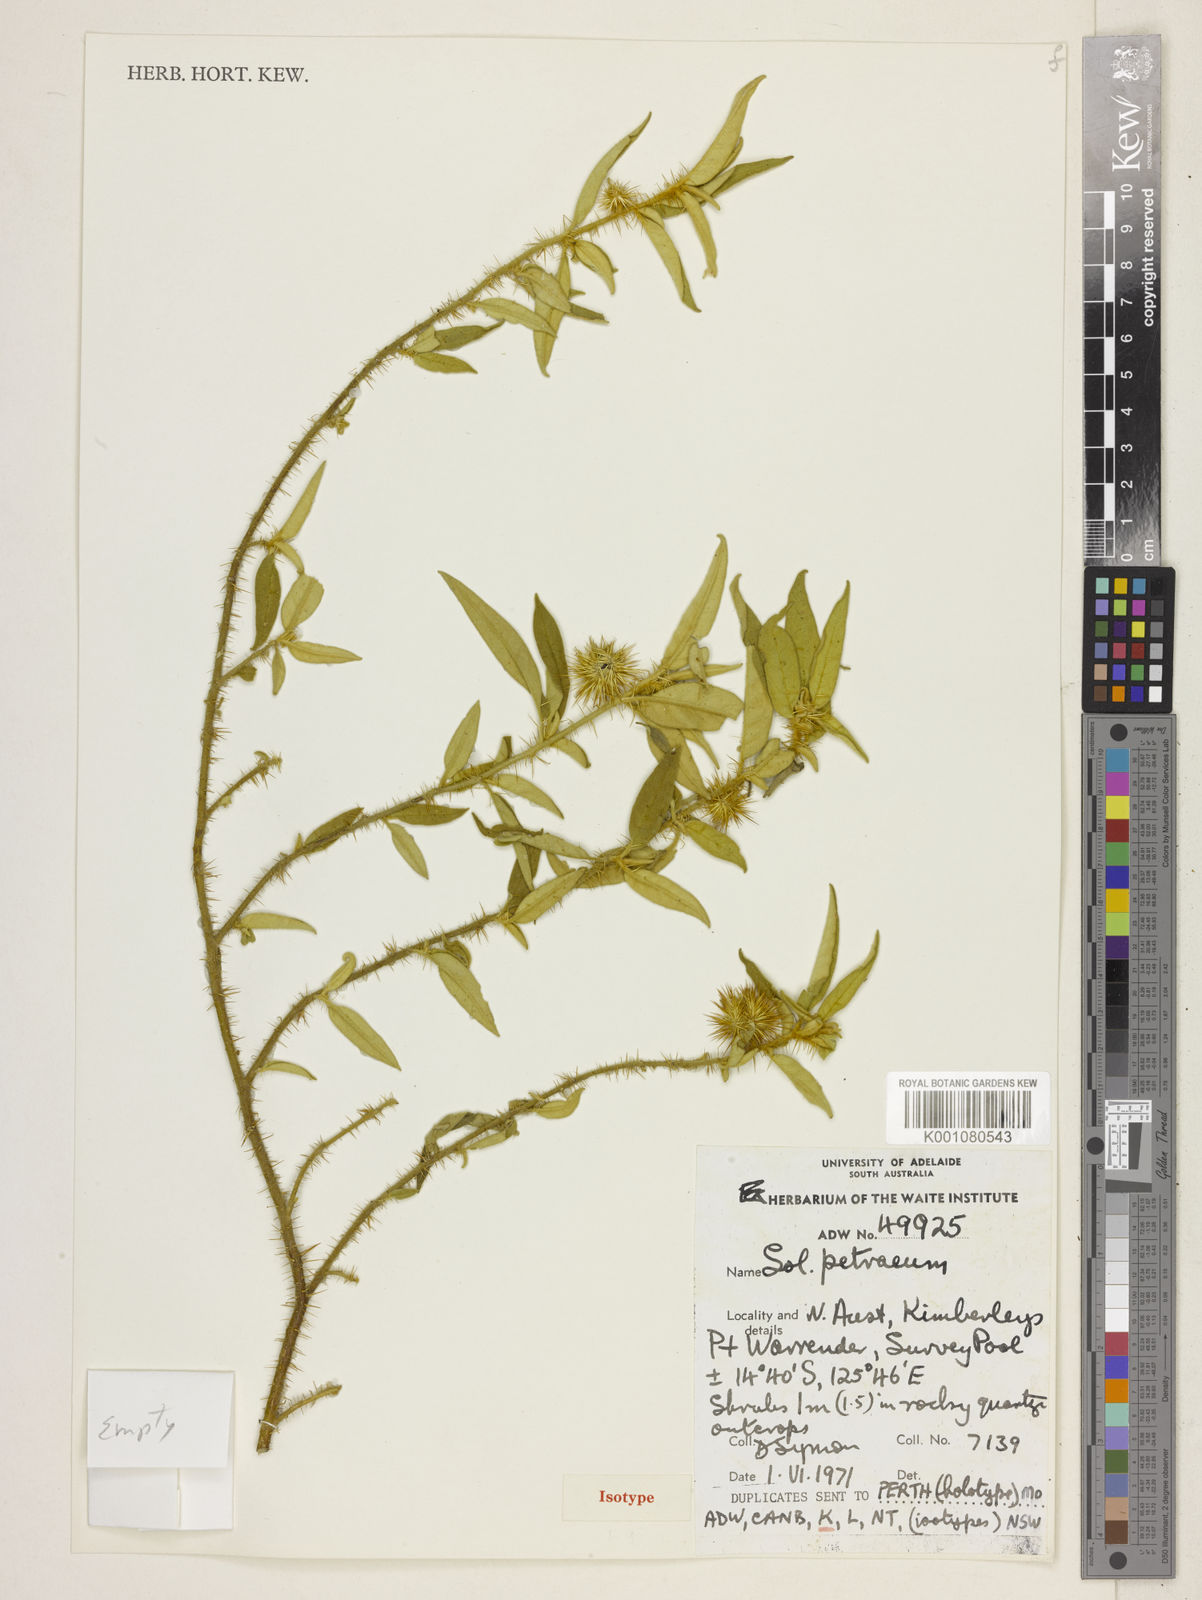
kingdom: Plantae
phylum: Tracheophyta
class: Magnoliopsida
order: Solanales
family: Solanaceae
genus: Solanum
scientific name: Solanum petraeum
